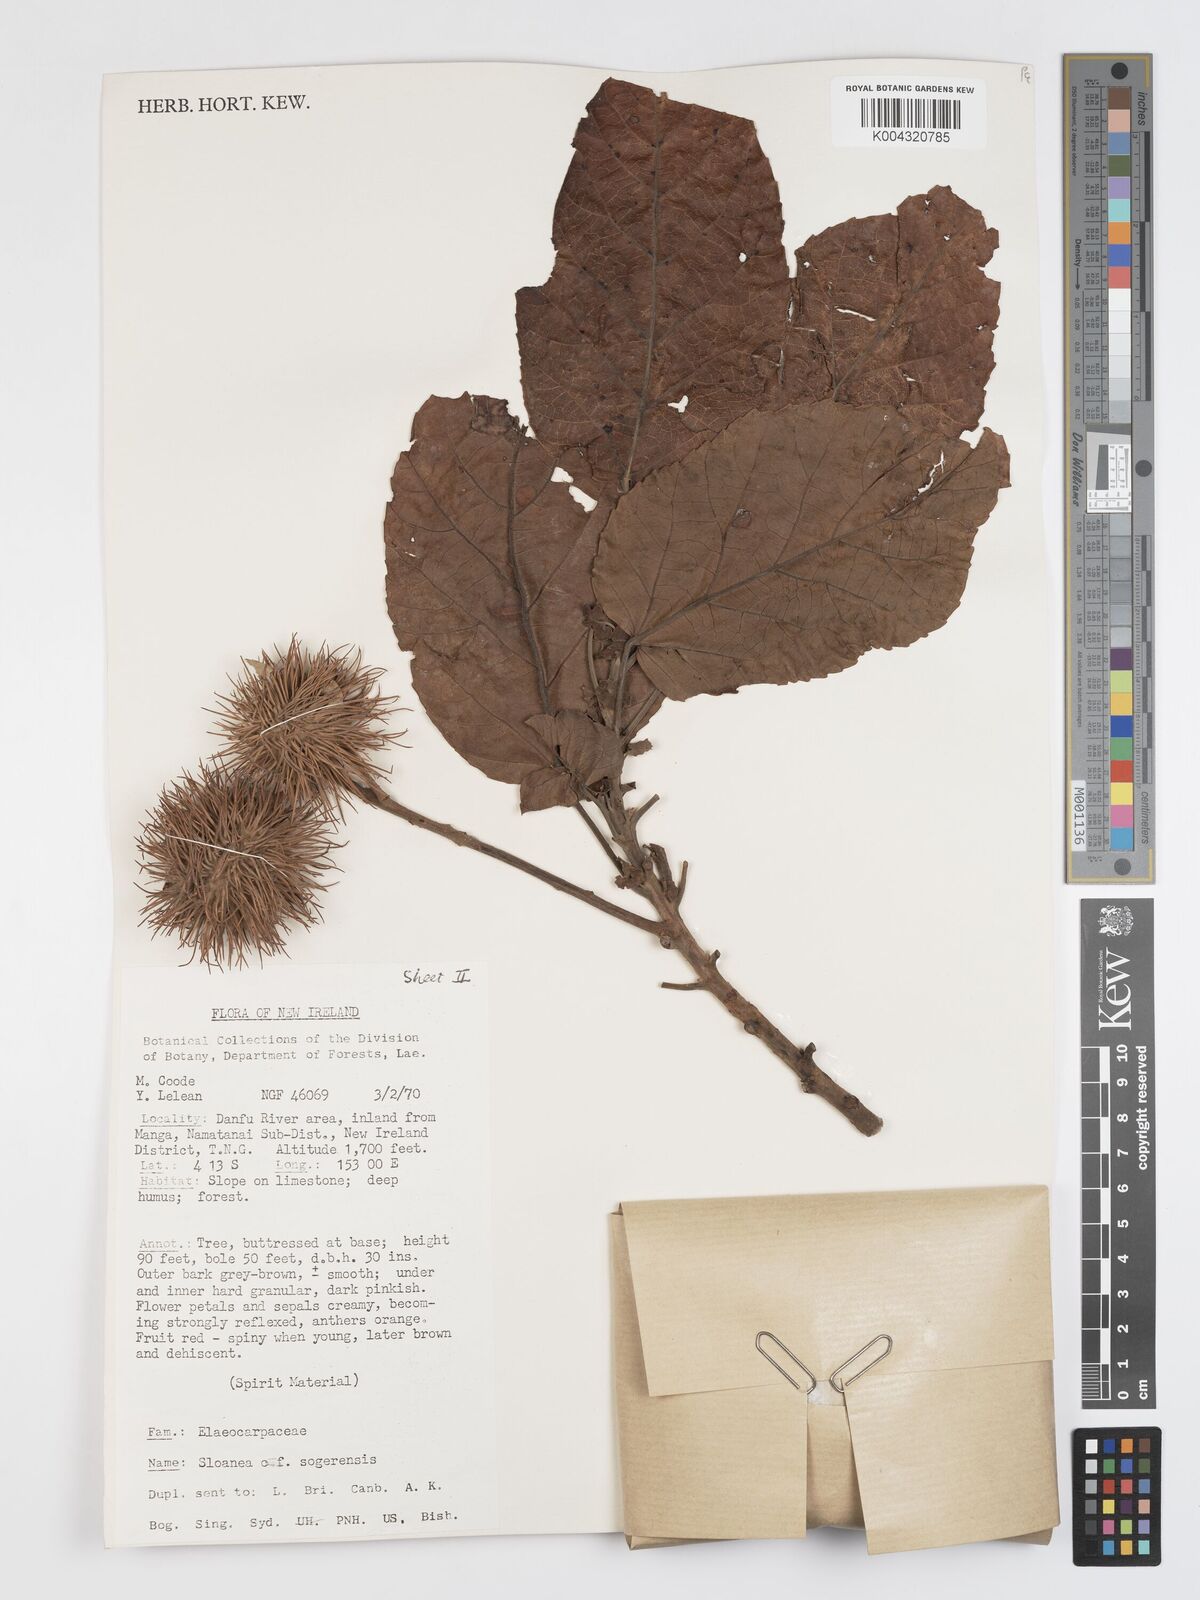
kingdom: Plantae
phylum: Tracheophyta
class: Magnoliopsida
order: Oxalidales
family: Elaeocarpaceae
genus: Sloanea
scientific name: Sloanea sogerensis
